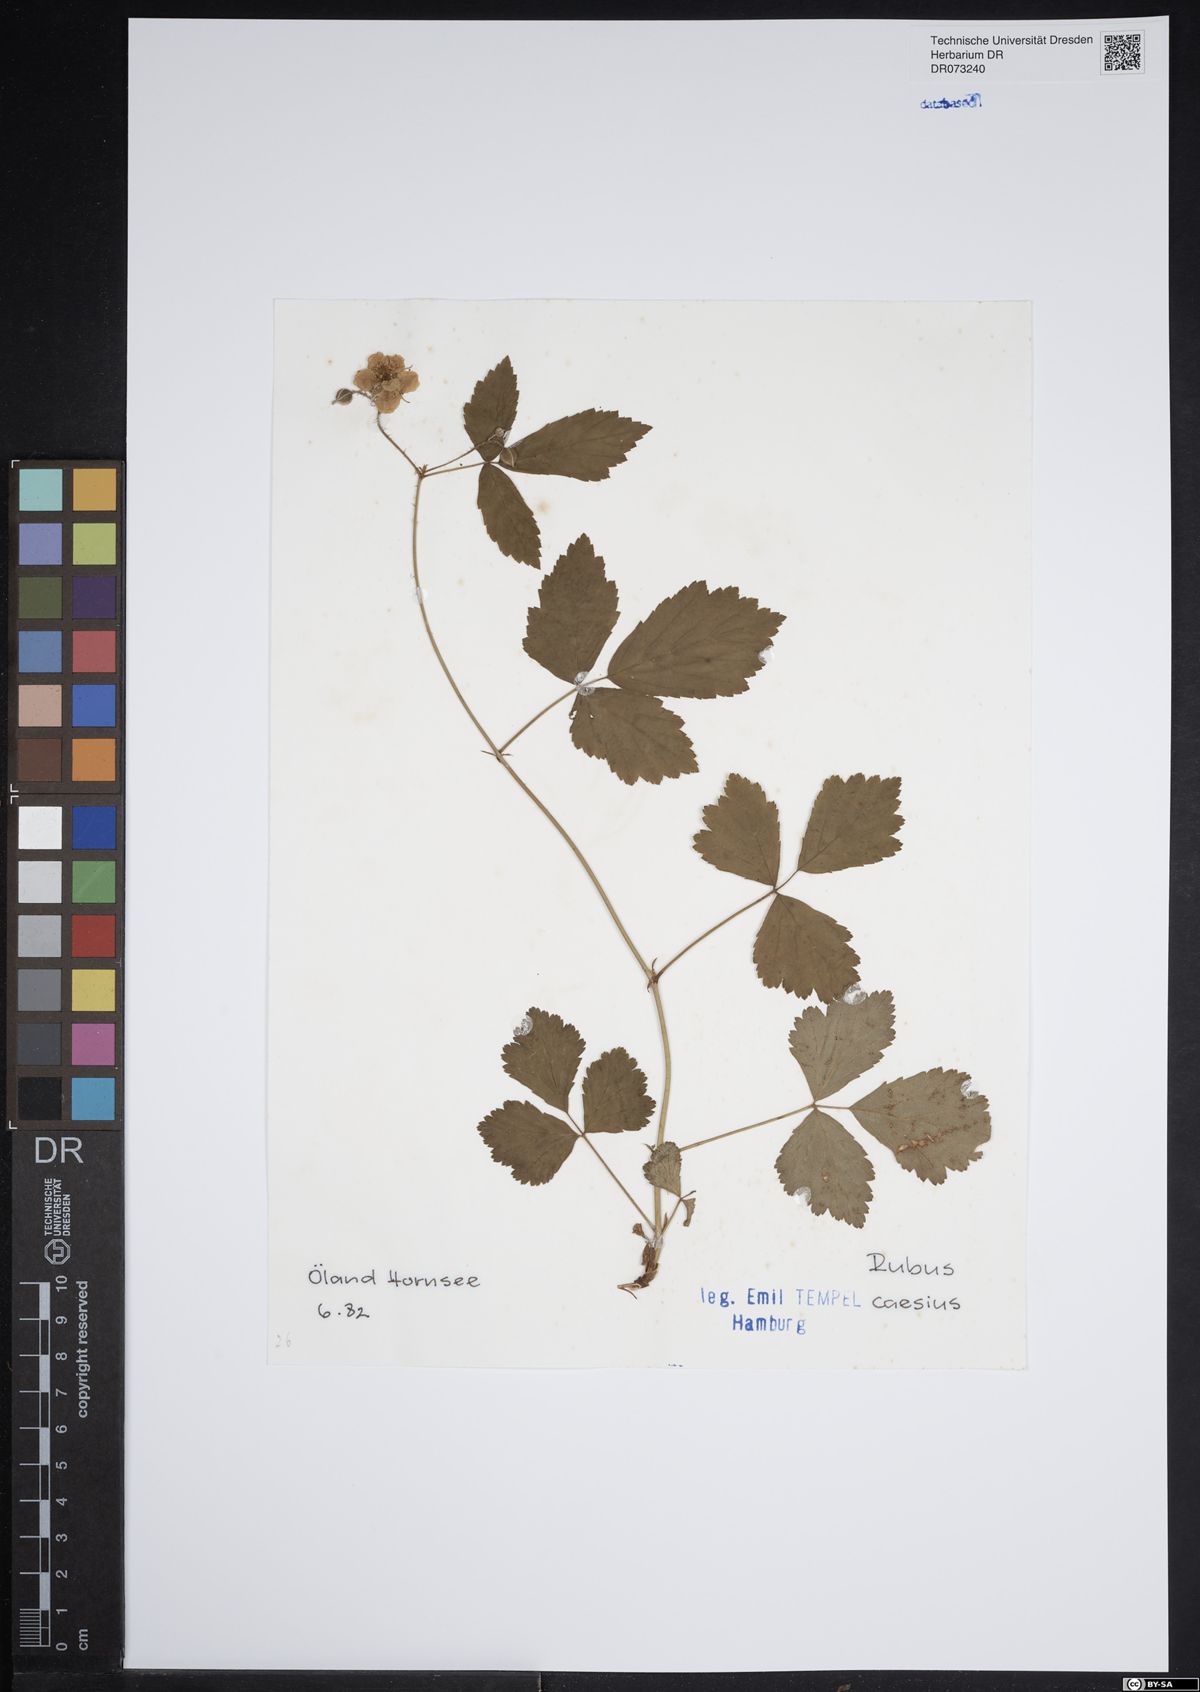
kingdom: Plantae
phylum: Tracheophyta
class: Magnoliopsida
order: Rosales
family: Rosaceae
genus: Rubus
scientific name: Rubus caesius
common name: Dewberry
